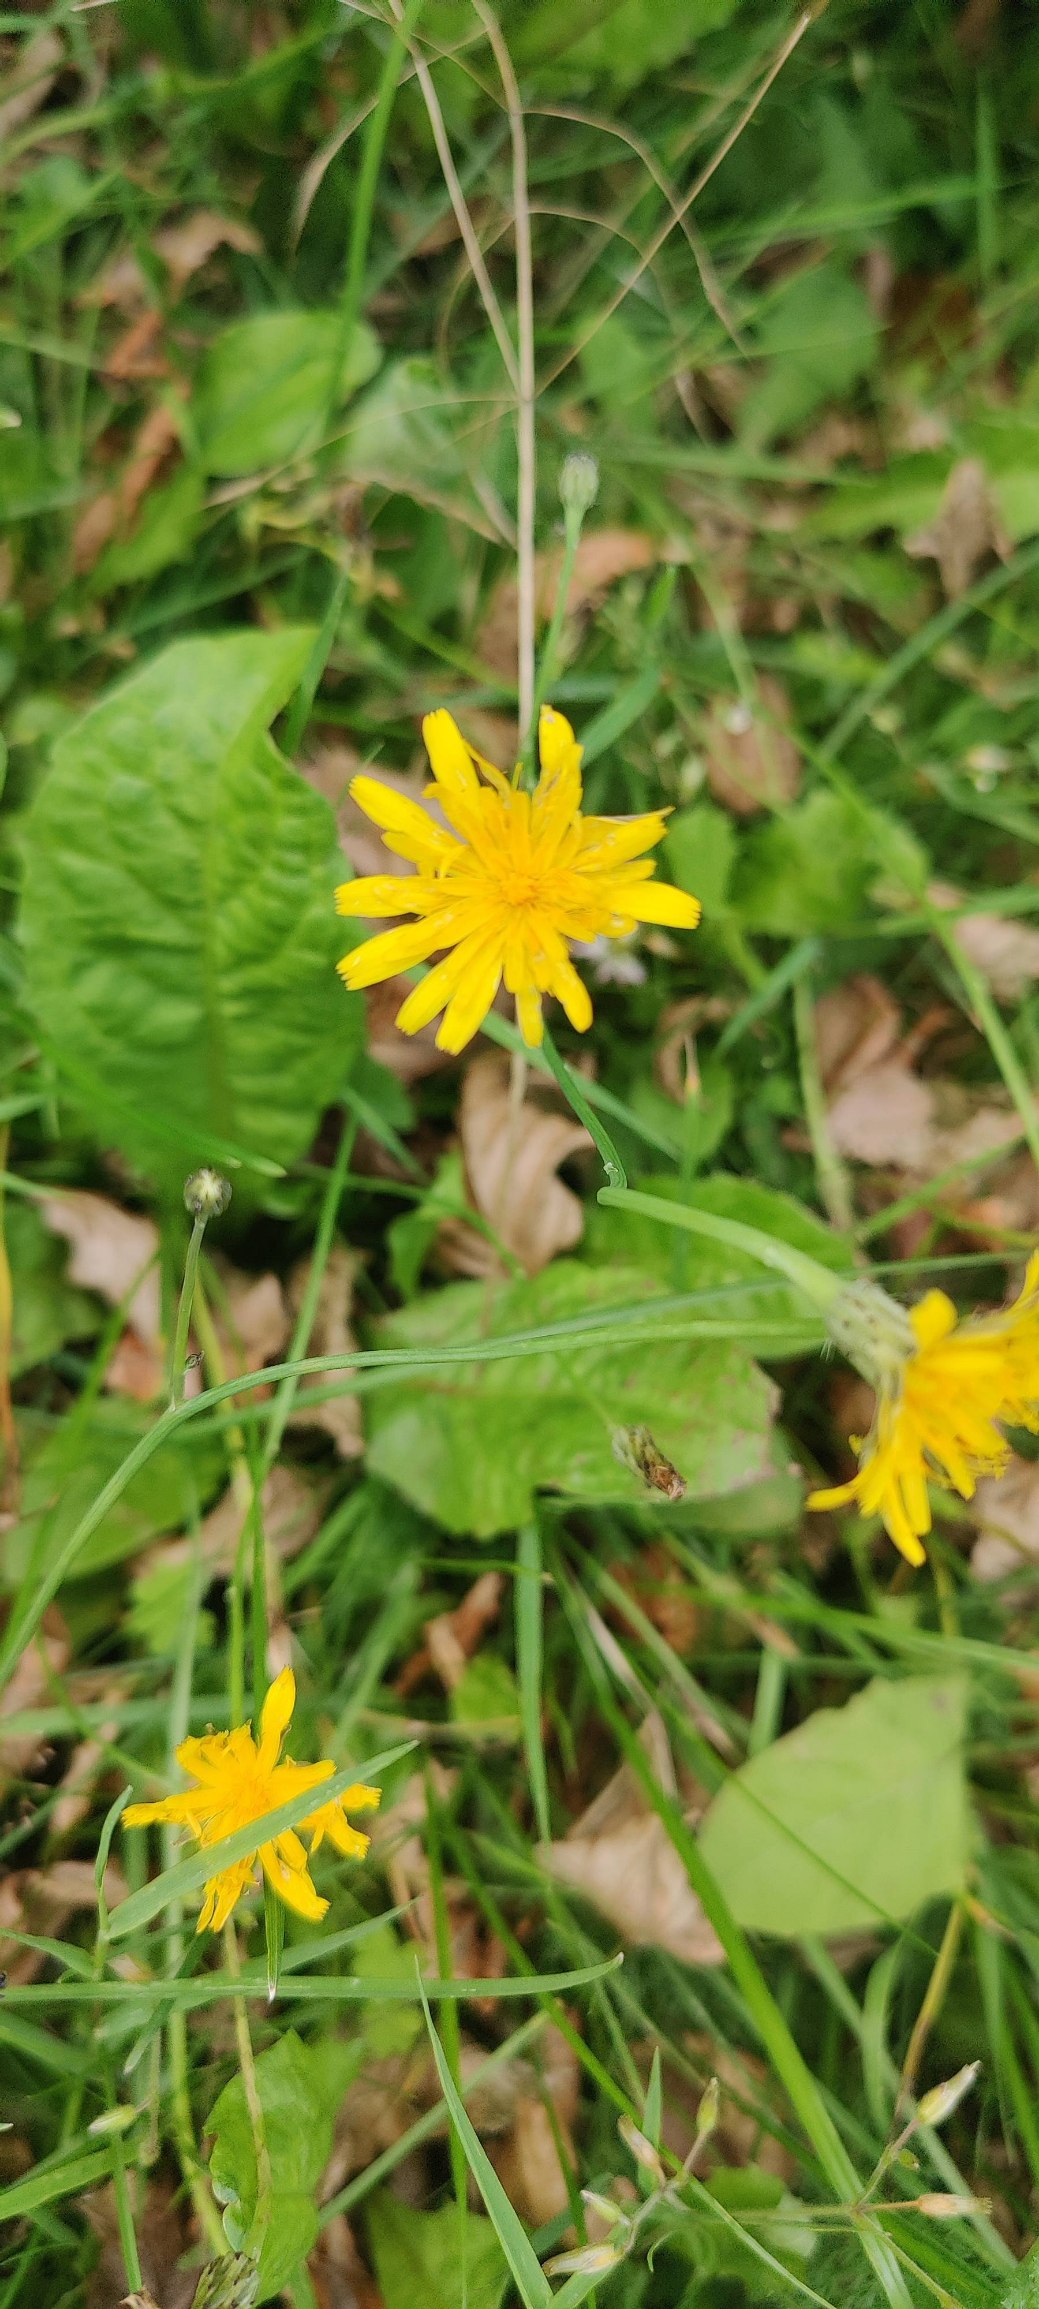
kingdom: Plantae
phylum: Tracheophyta
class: Magnoliopsida
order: Asterales
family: Asteraceae
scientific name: Asteraceae
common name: Kurvblomstfamilien
